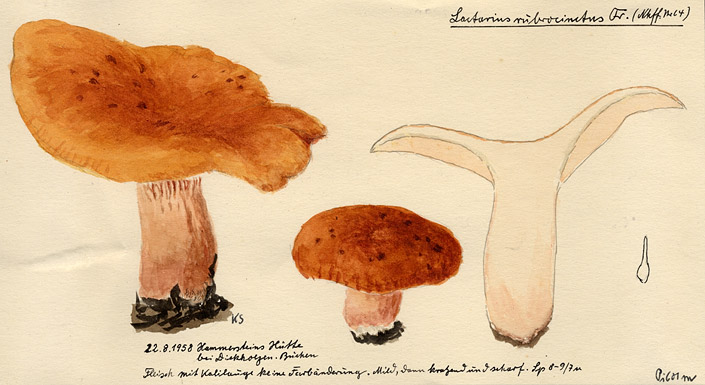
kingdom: Fungi
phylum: Basidiomycota
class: Agaricomycetes
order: Russulales
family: Russulaceae
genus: Lactarius
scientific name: Lactarius fulvissimus
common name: Tawny milkcap
